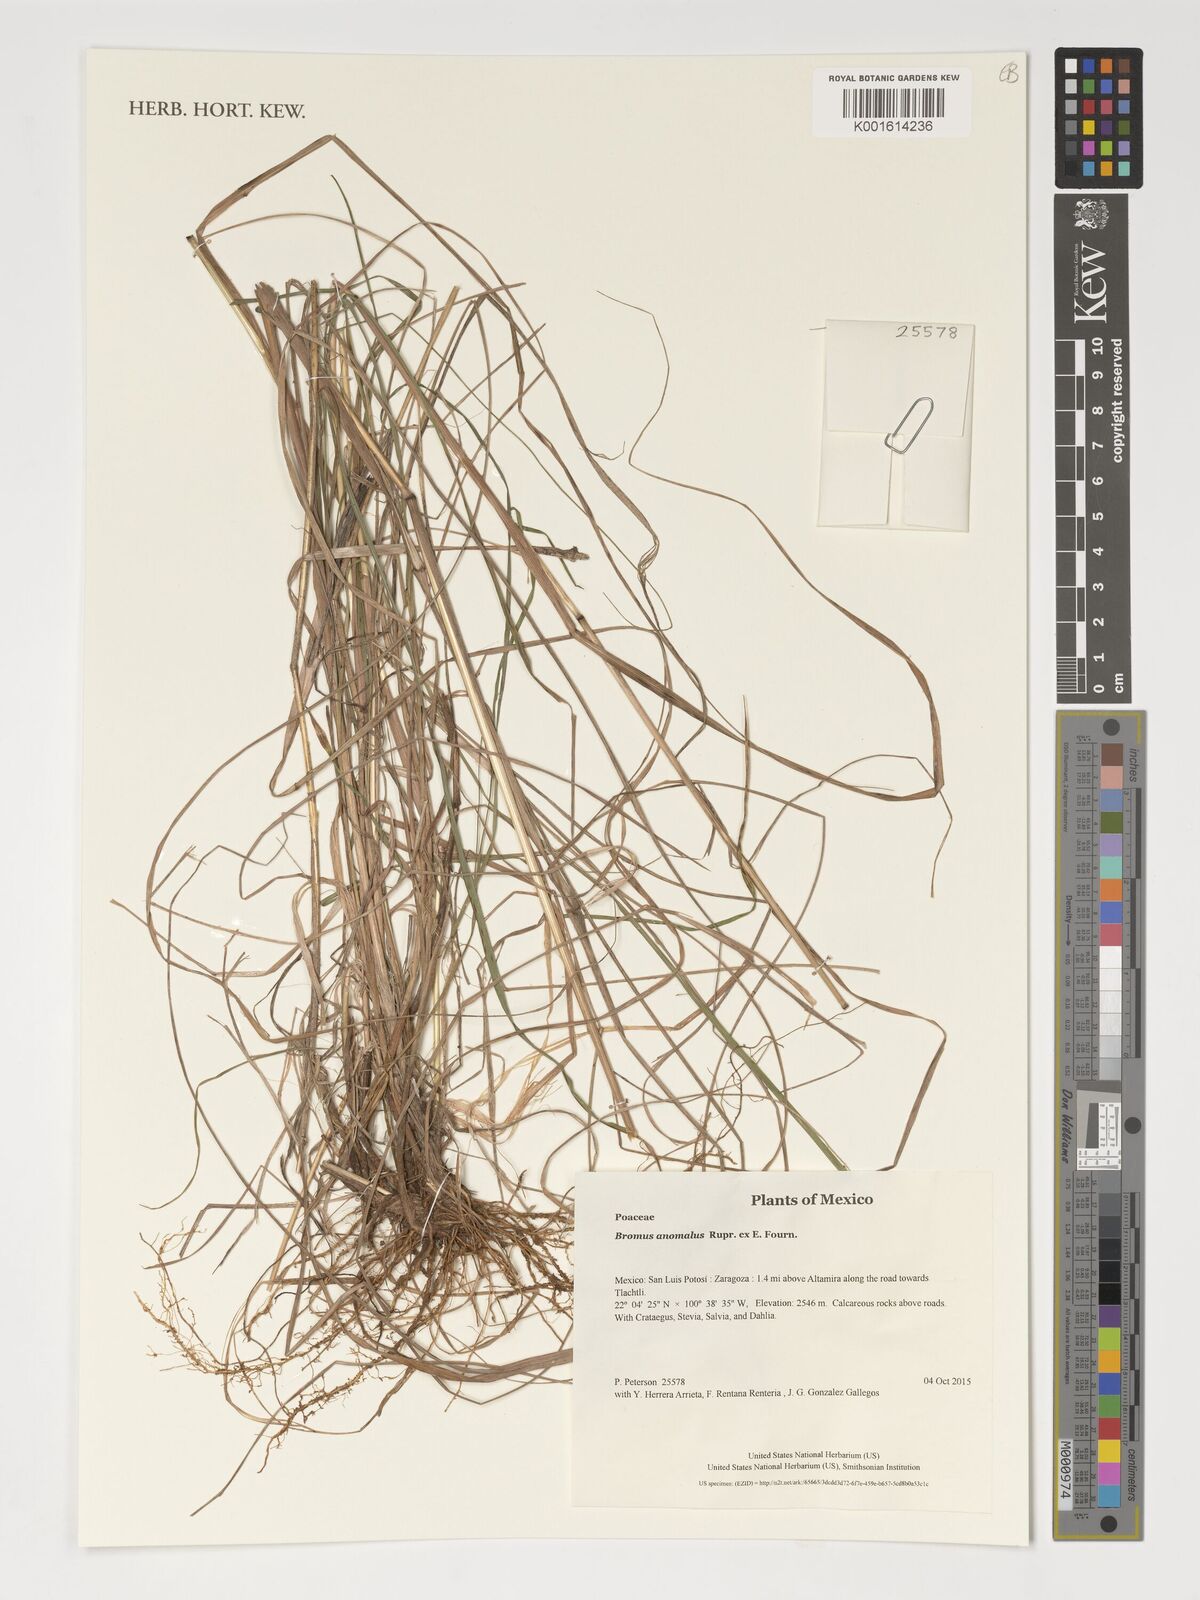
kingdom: Plantae
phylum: Tracheophyta
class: Liliopsida
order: Poales
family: Poaceae
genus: Bromus
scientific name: Bromus anomalus
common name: Nodding brome
